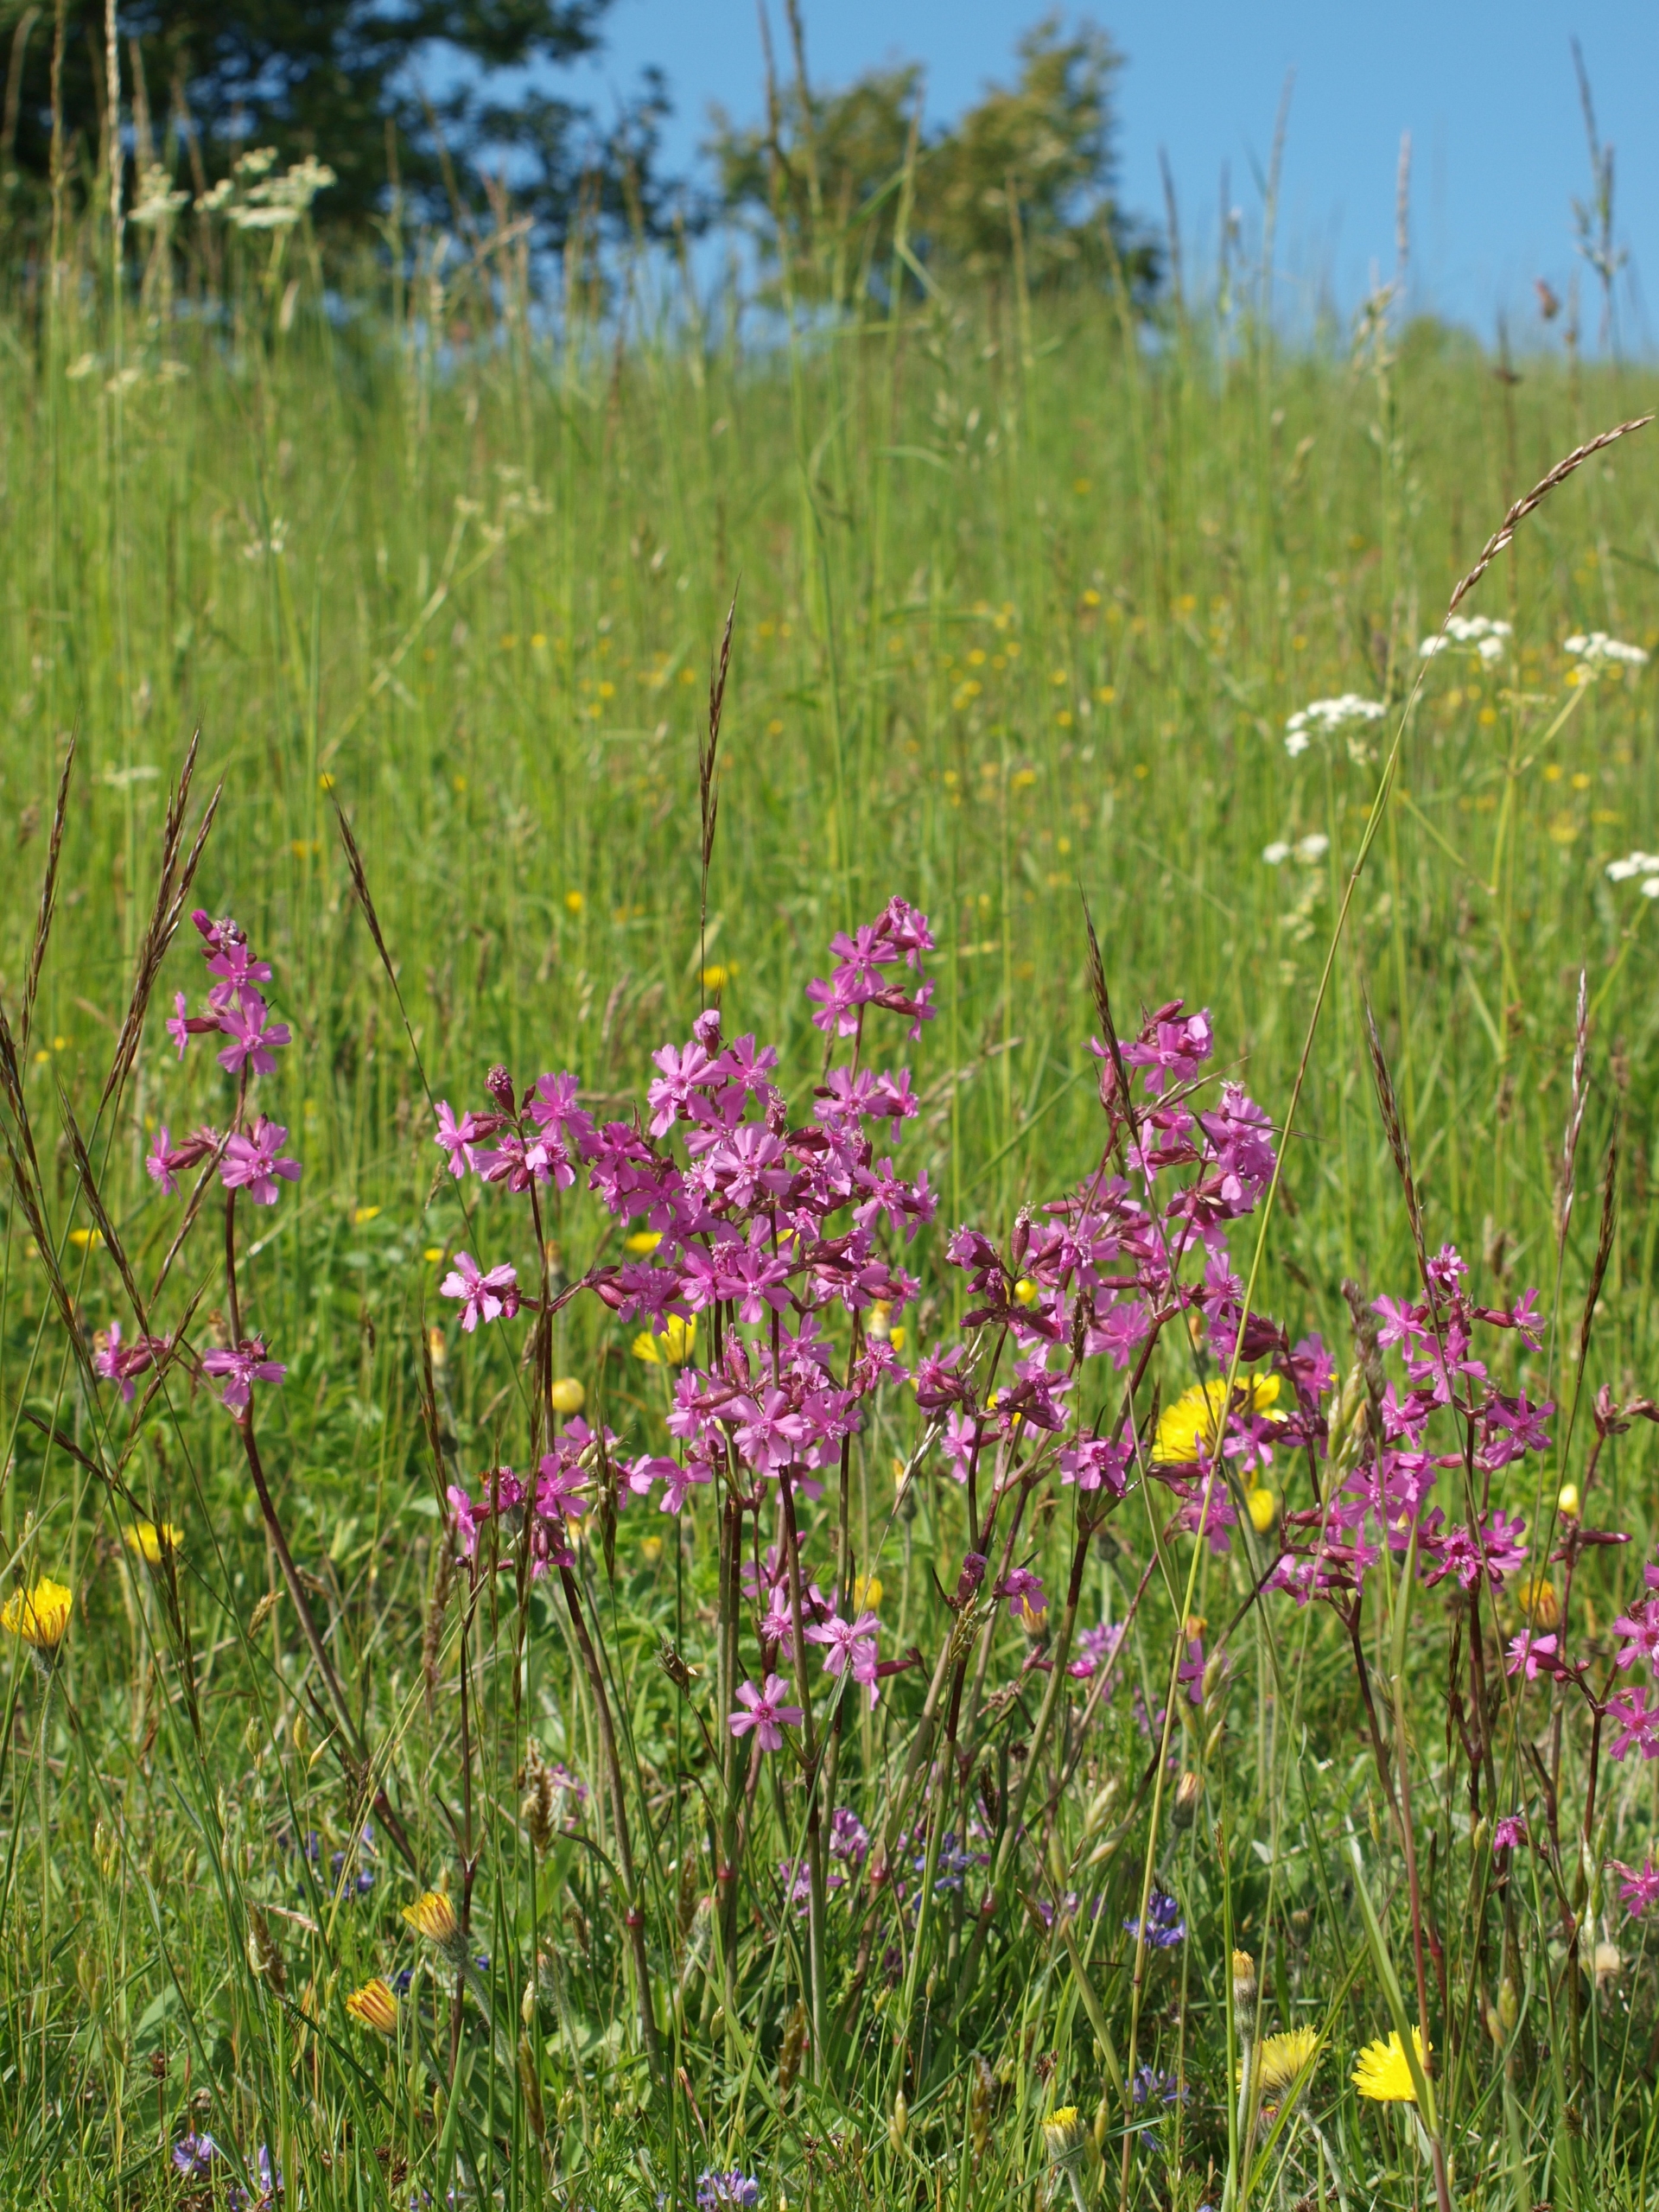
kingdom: Plantae
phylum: Tracheophyta
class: Magnoliopsida
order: Caryophyllales
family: Caryophyllaceae
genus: Viscaria
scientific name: Viscaria vulgaris
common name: Tjærenellike
